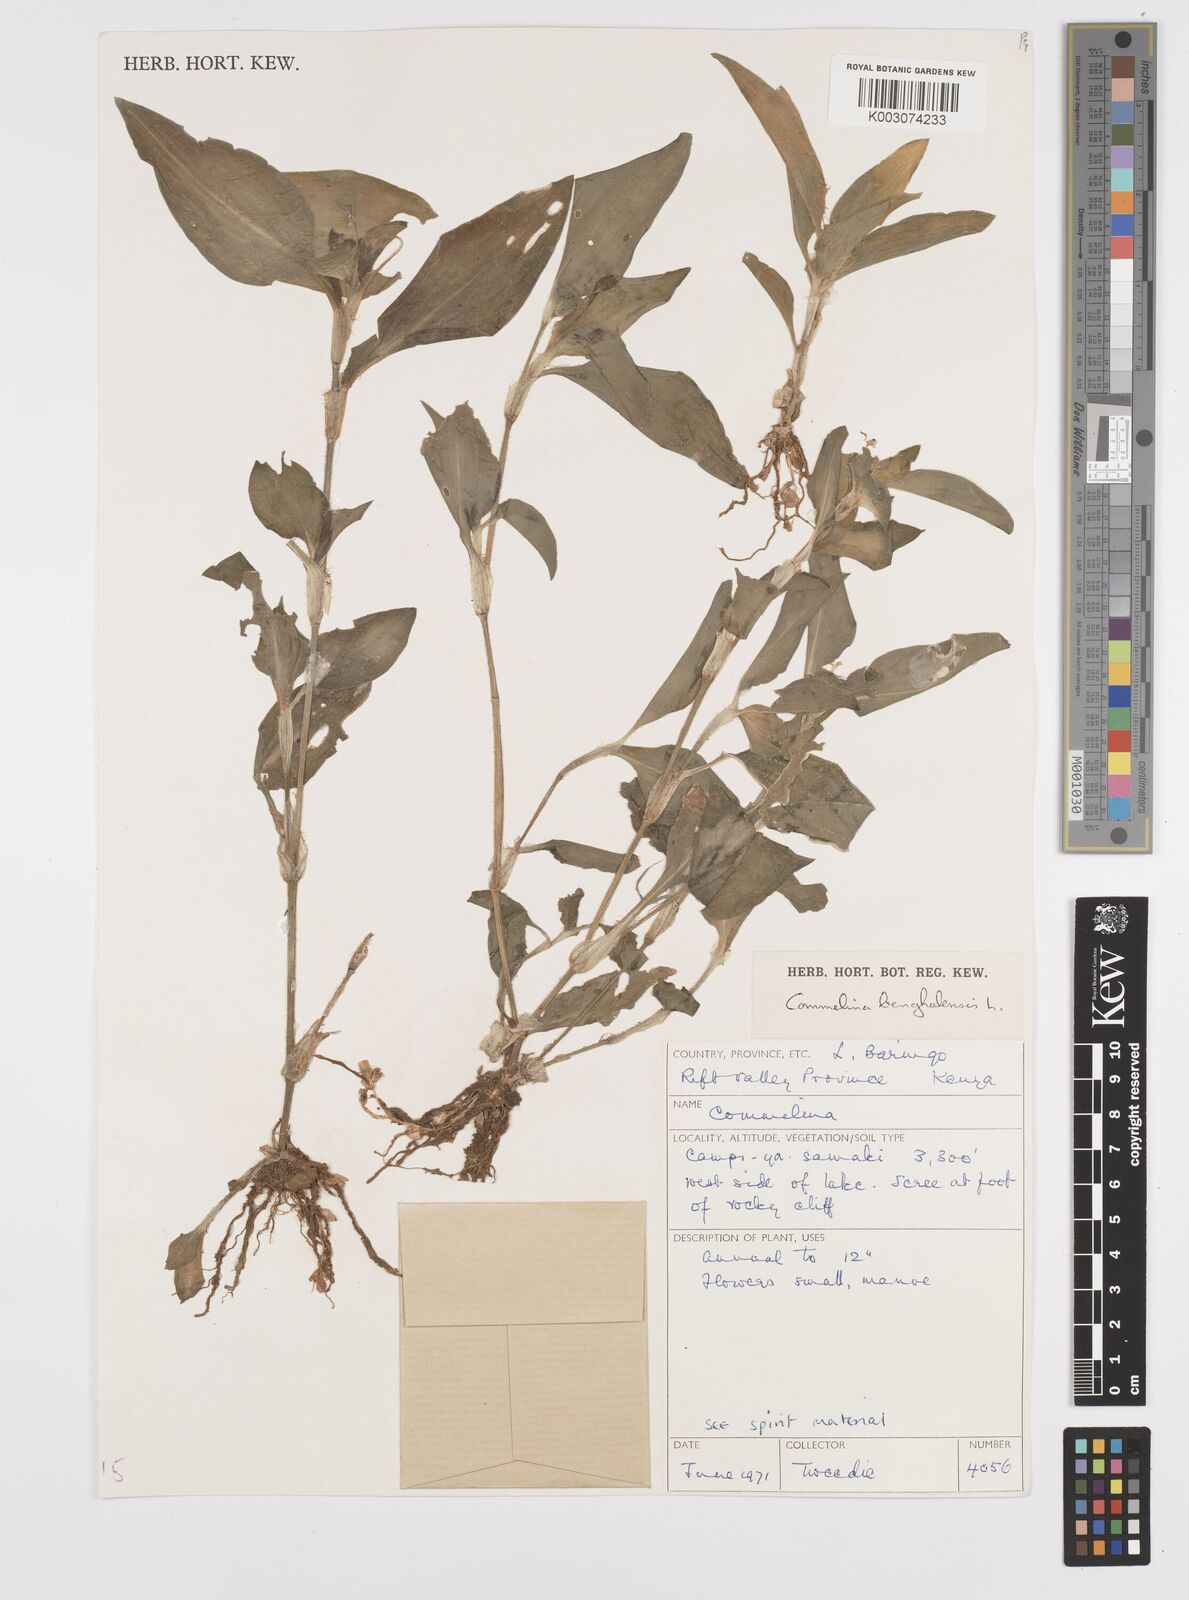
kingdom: Plantae
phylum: Tracheophyta
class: Liliopsida
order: Commelinales
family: Commelinaceae
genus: Commelina
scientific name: Commelina benghalensis
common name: Jio
